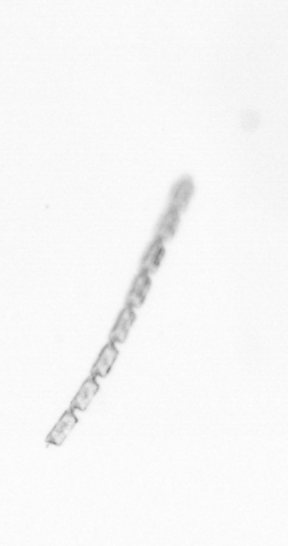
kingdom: Chromista
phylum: Ochrophyta
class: Bacillariophyceae
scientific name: Bacillariophyceae
